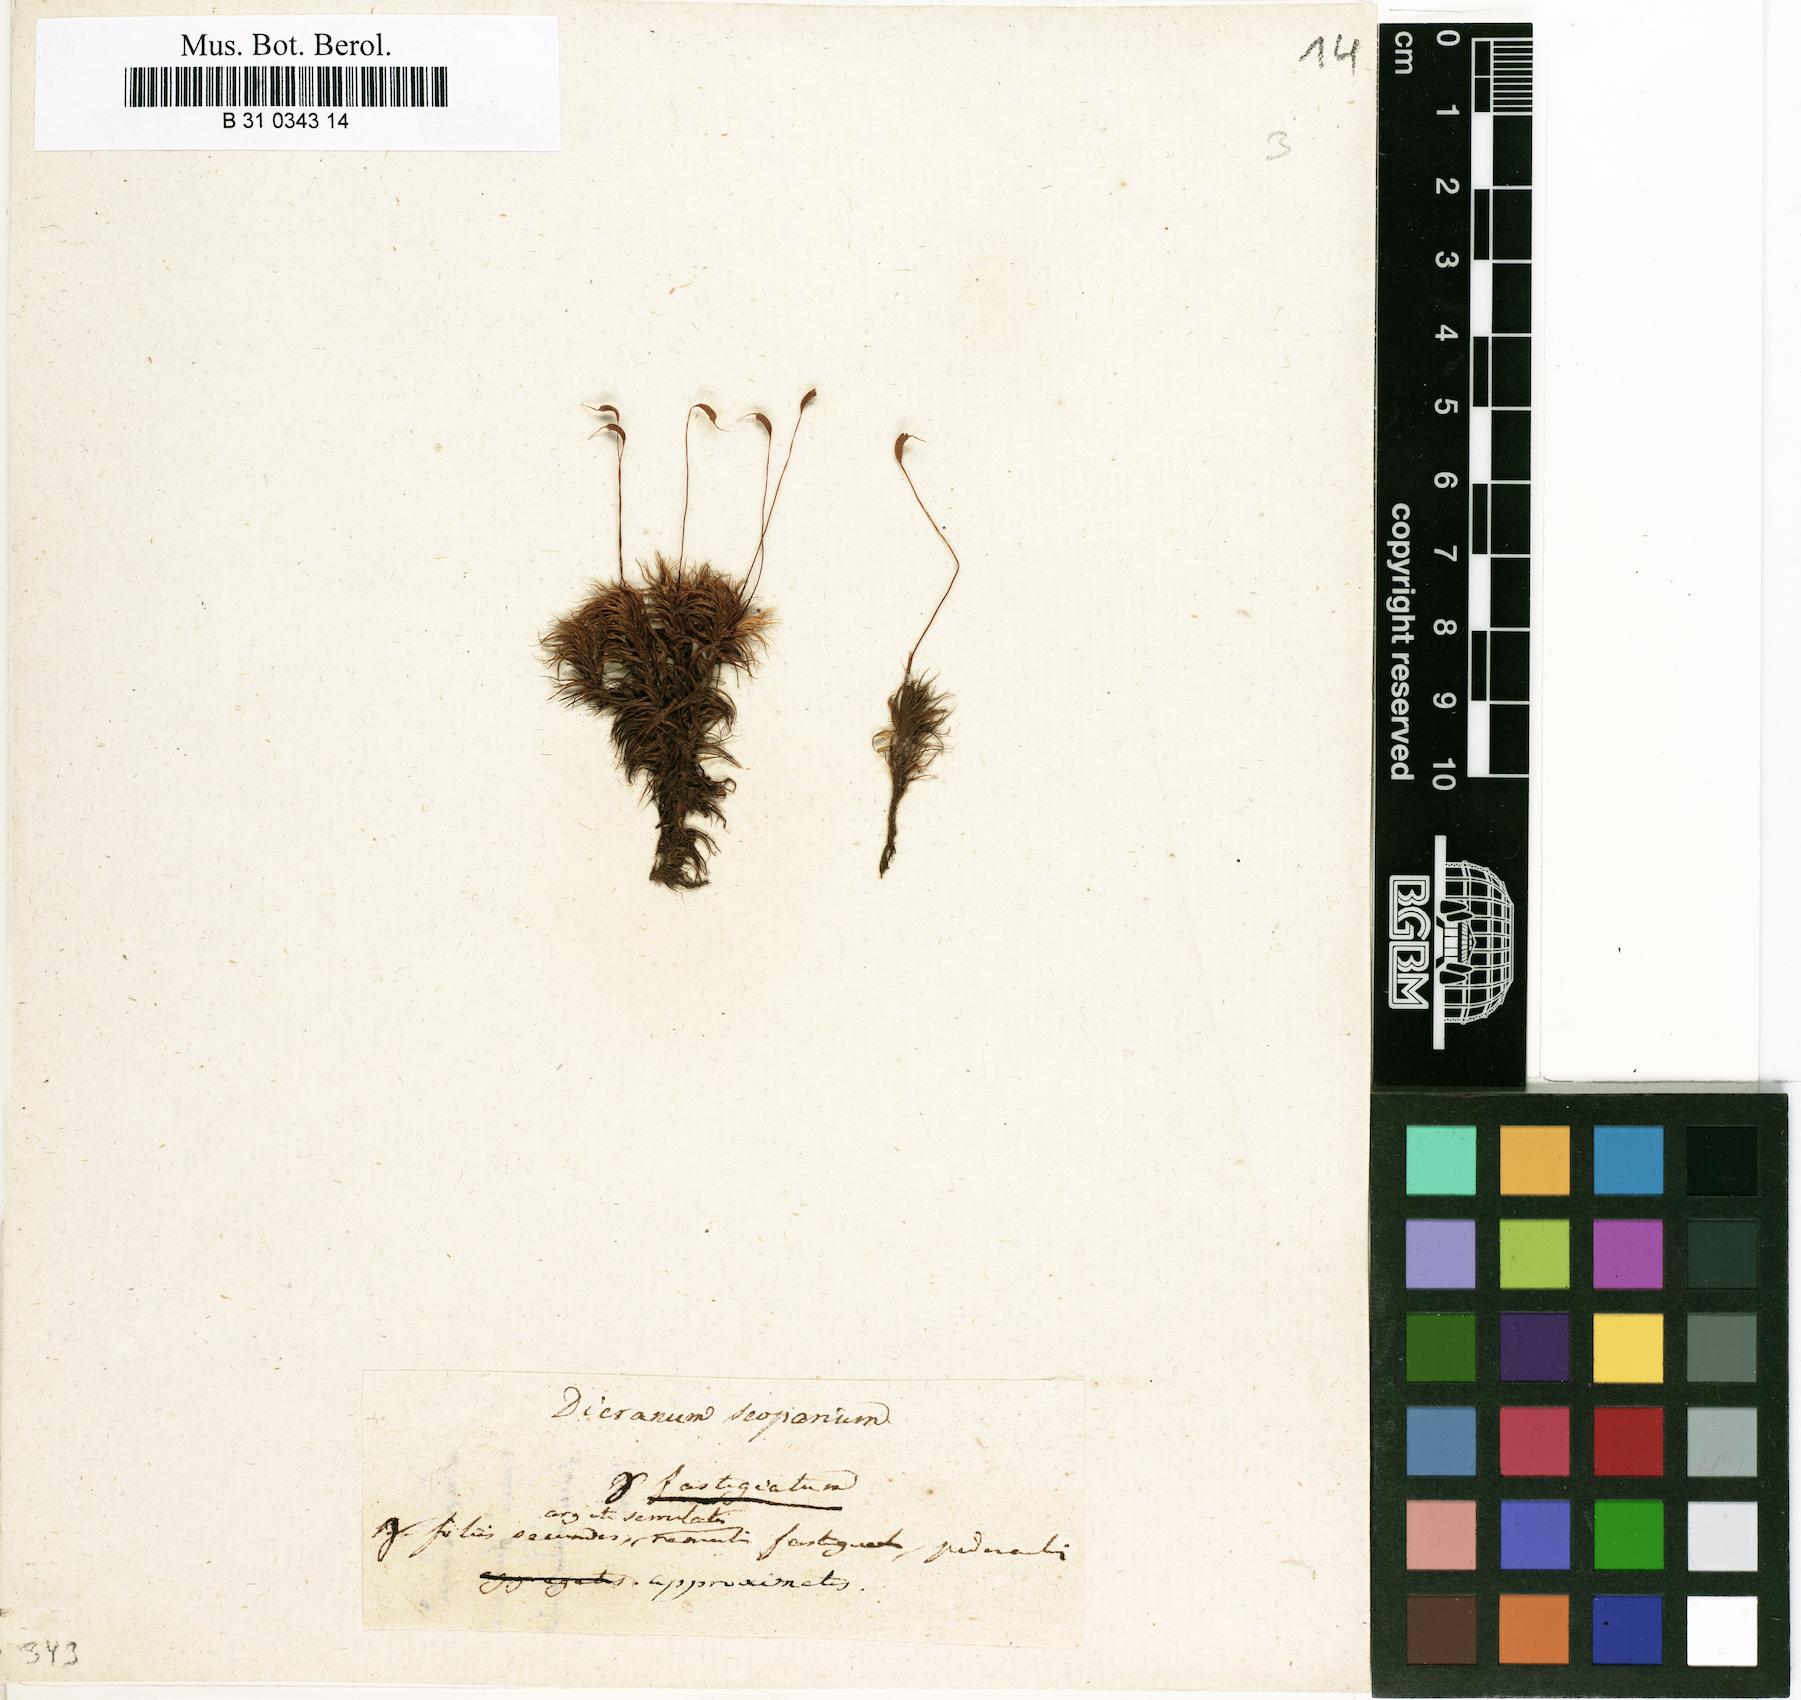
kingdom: Plantae
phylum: Bryophyta
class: Bryopsida
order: Dicranales
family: Dicranaceae
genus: Dicranum
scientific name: Dicranum scoparium
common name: Broom fork-moss
